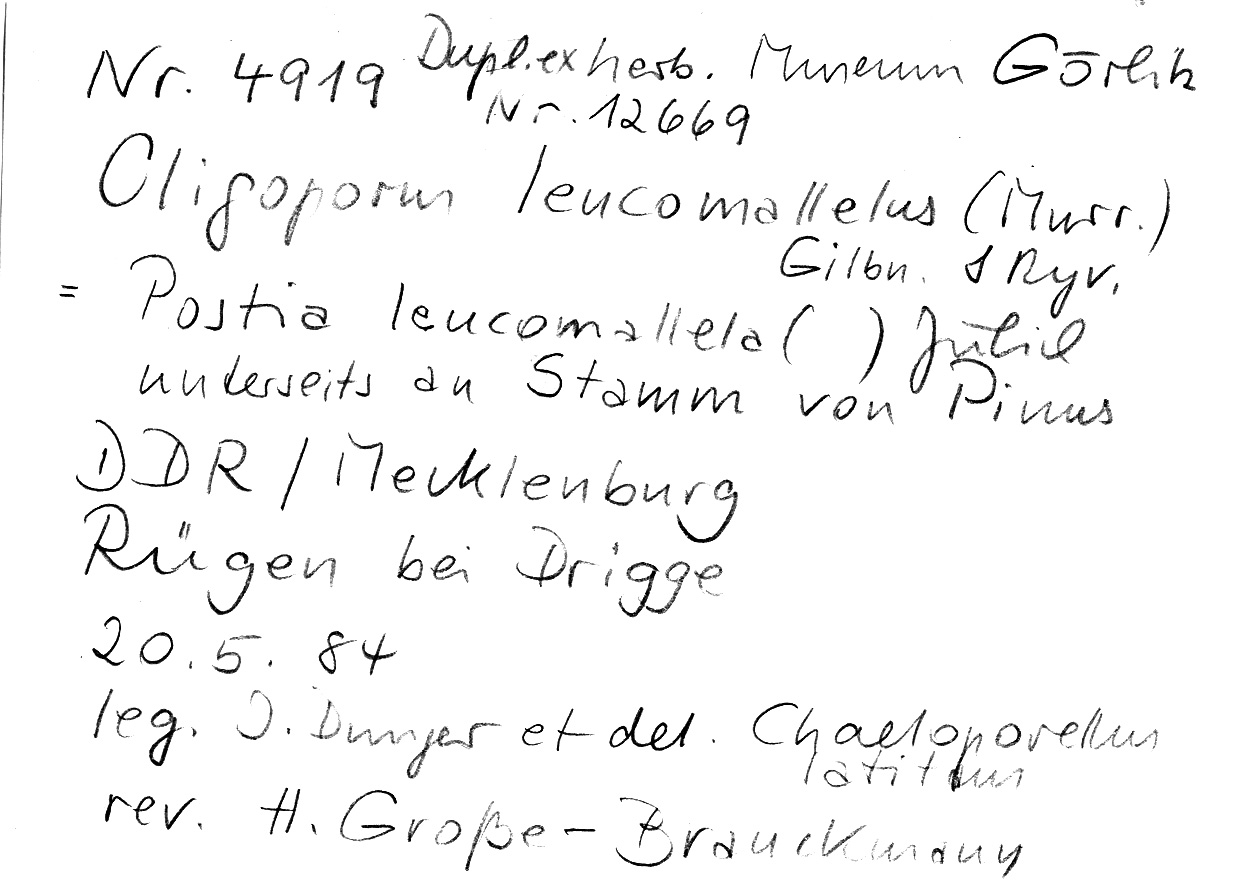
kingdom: Plantae
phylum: Tracheophyta
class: Pinopsida
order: Pinales
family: Pinaceae
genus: Pinus
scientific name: Pinus
